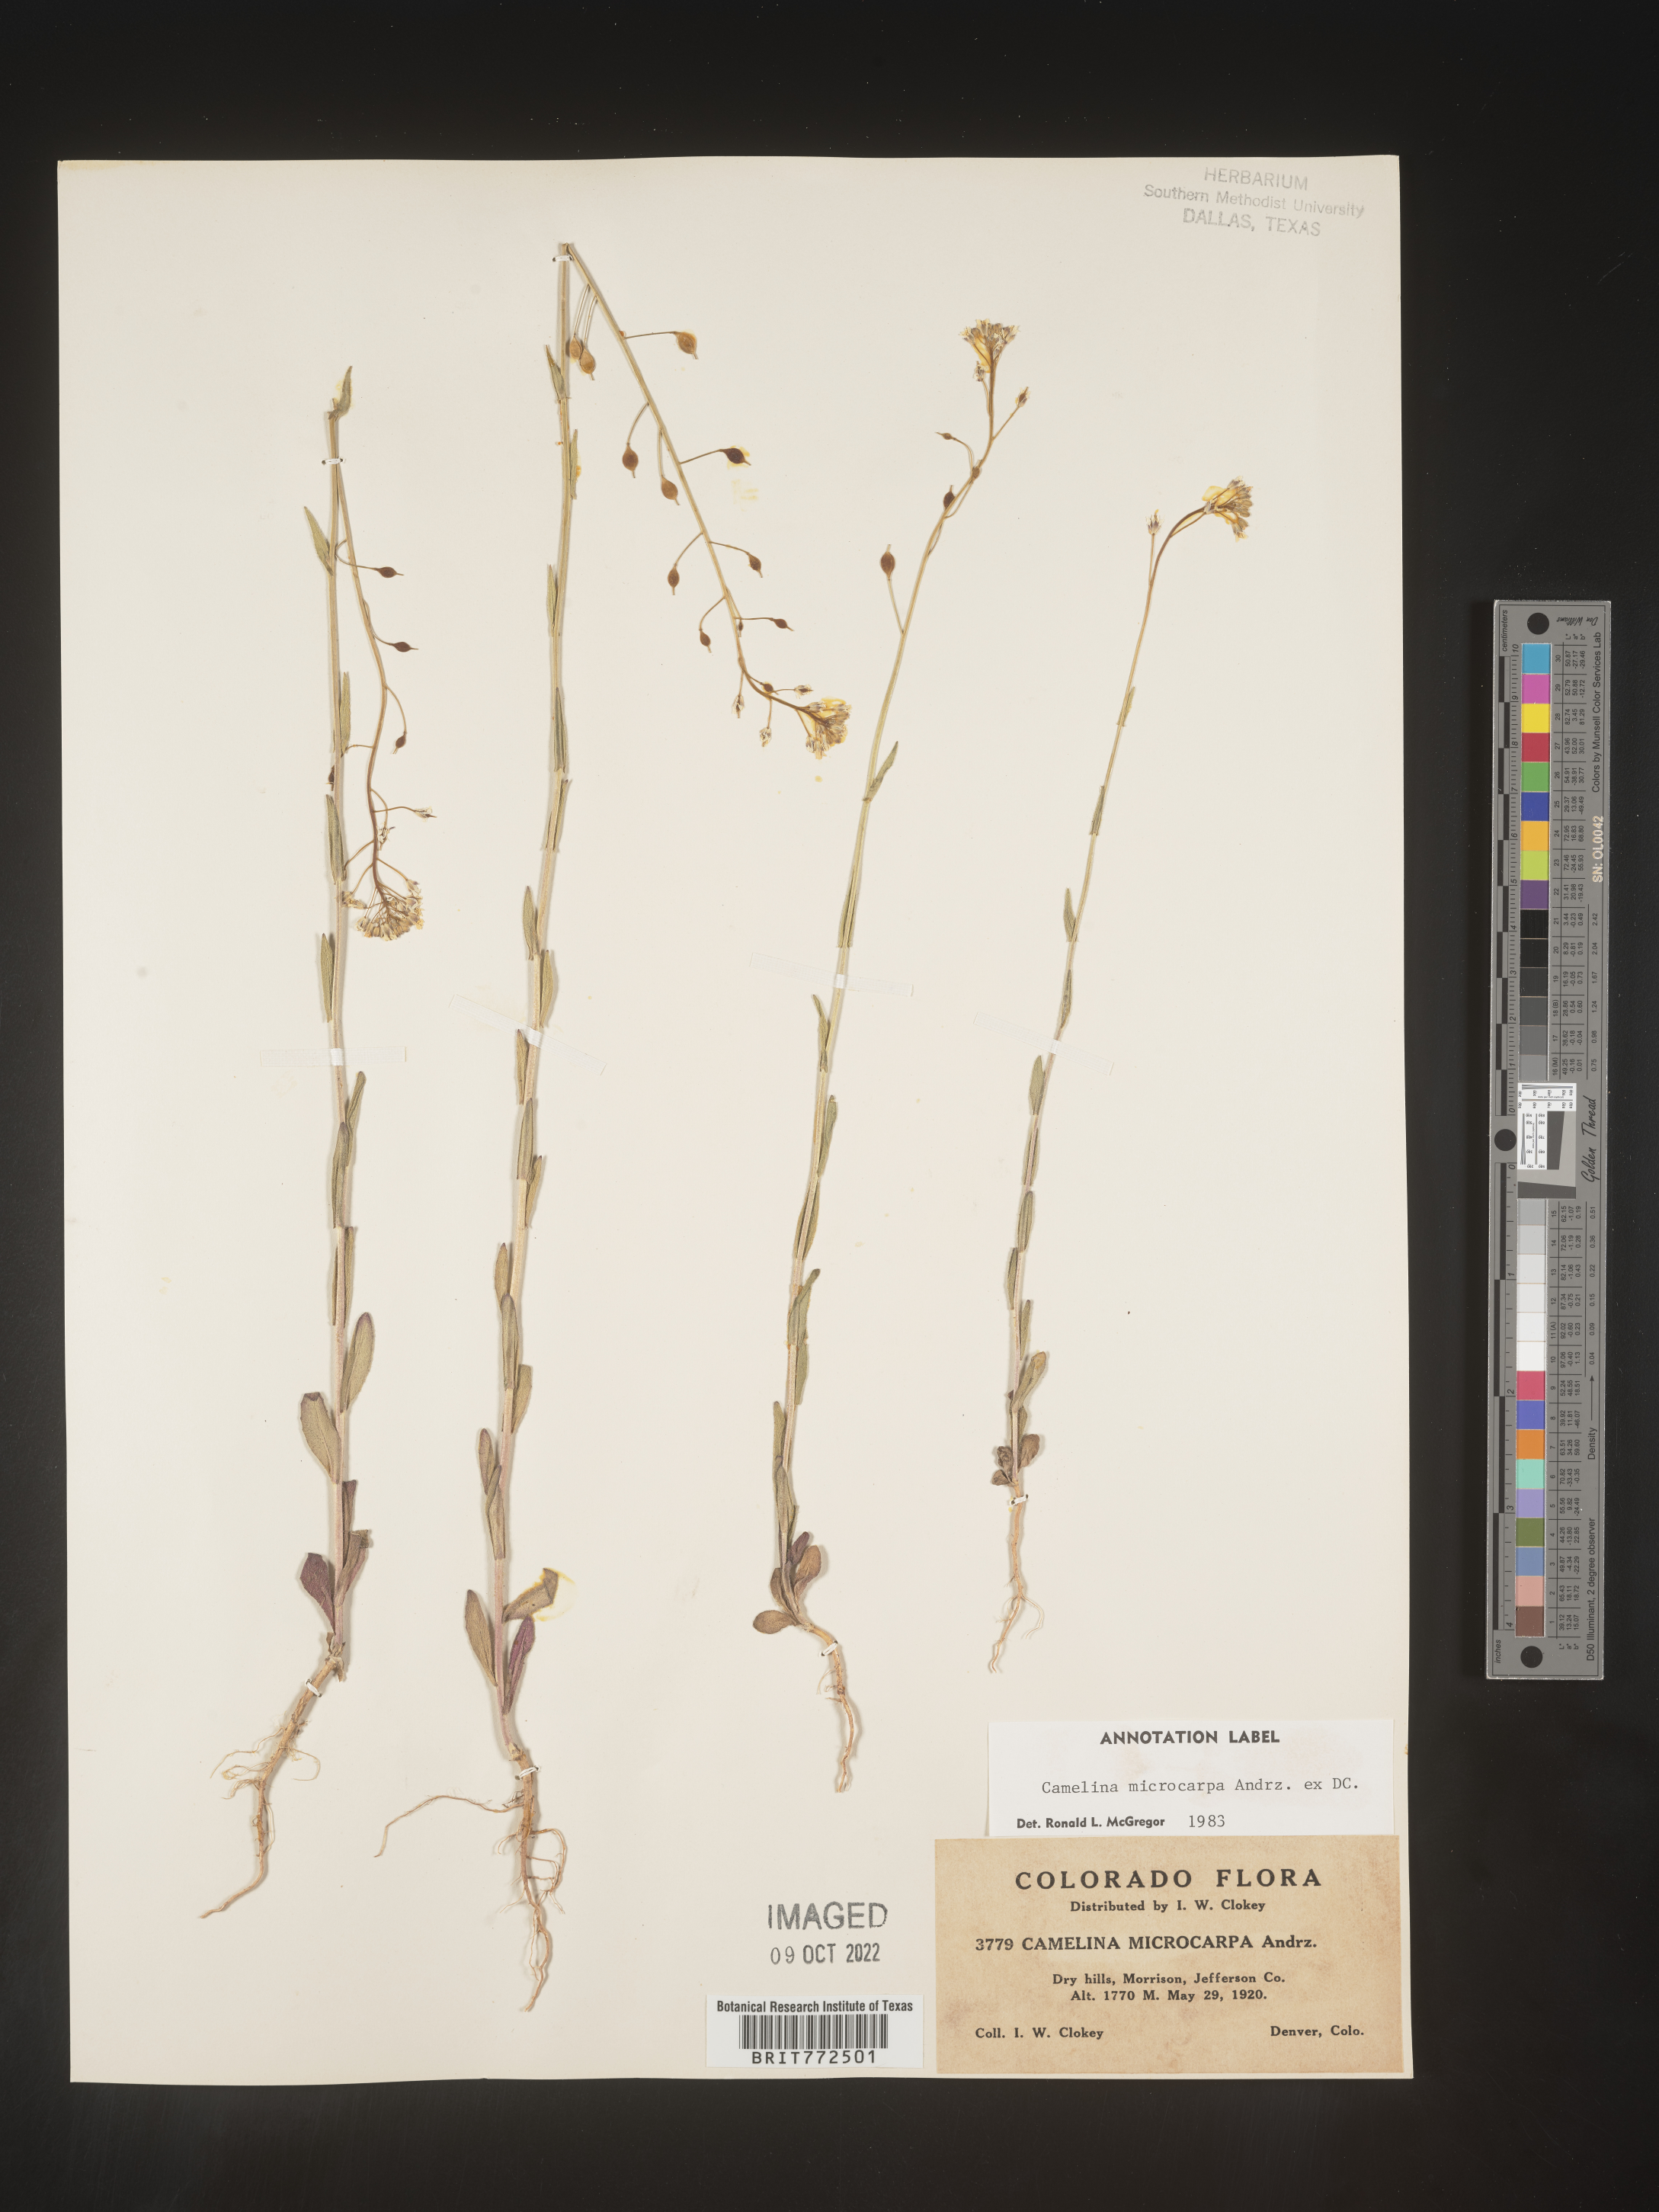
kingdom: Plantae
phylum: Tracheophyta
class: Magnoliopsida
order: Brassicales
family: Brassicaceae
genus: Camelina
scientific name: Camelina microcarpa
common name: Lesser gold-of-pleasure
